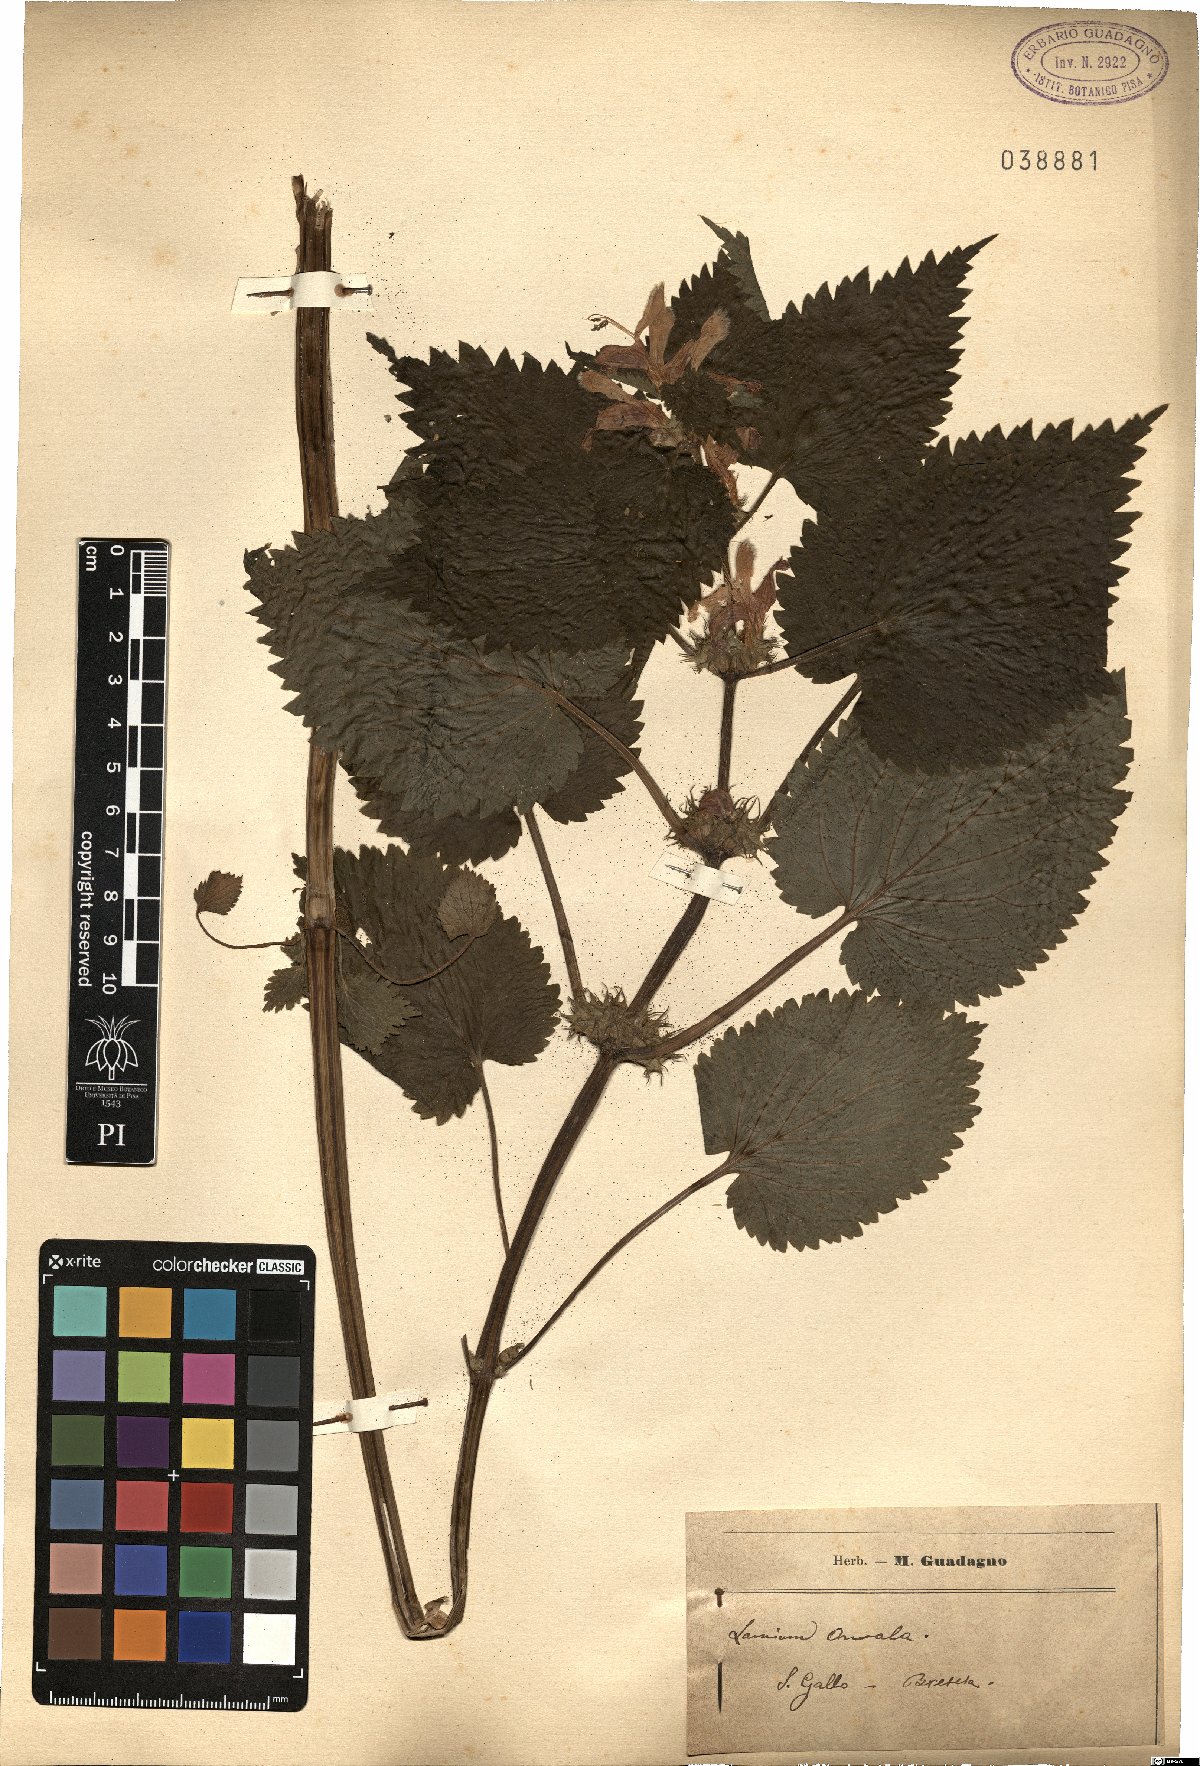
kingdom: Plantae
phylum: Tracheophyta
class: Magnoliopsida
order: Lamiales
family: Lamiaceae
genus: Lamium
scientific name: Lamium orvala
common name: Balm-leaved archangel
